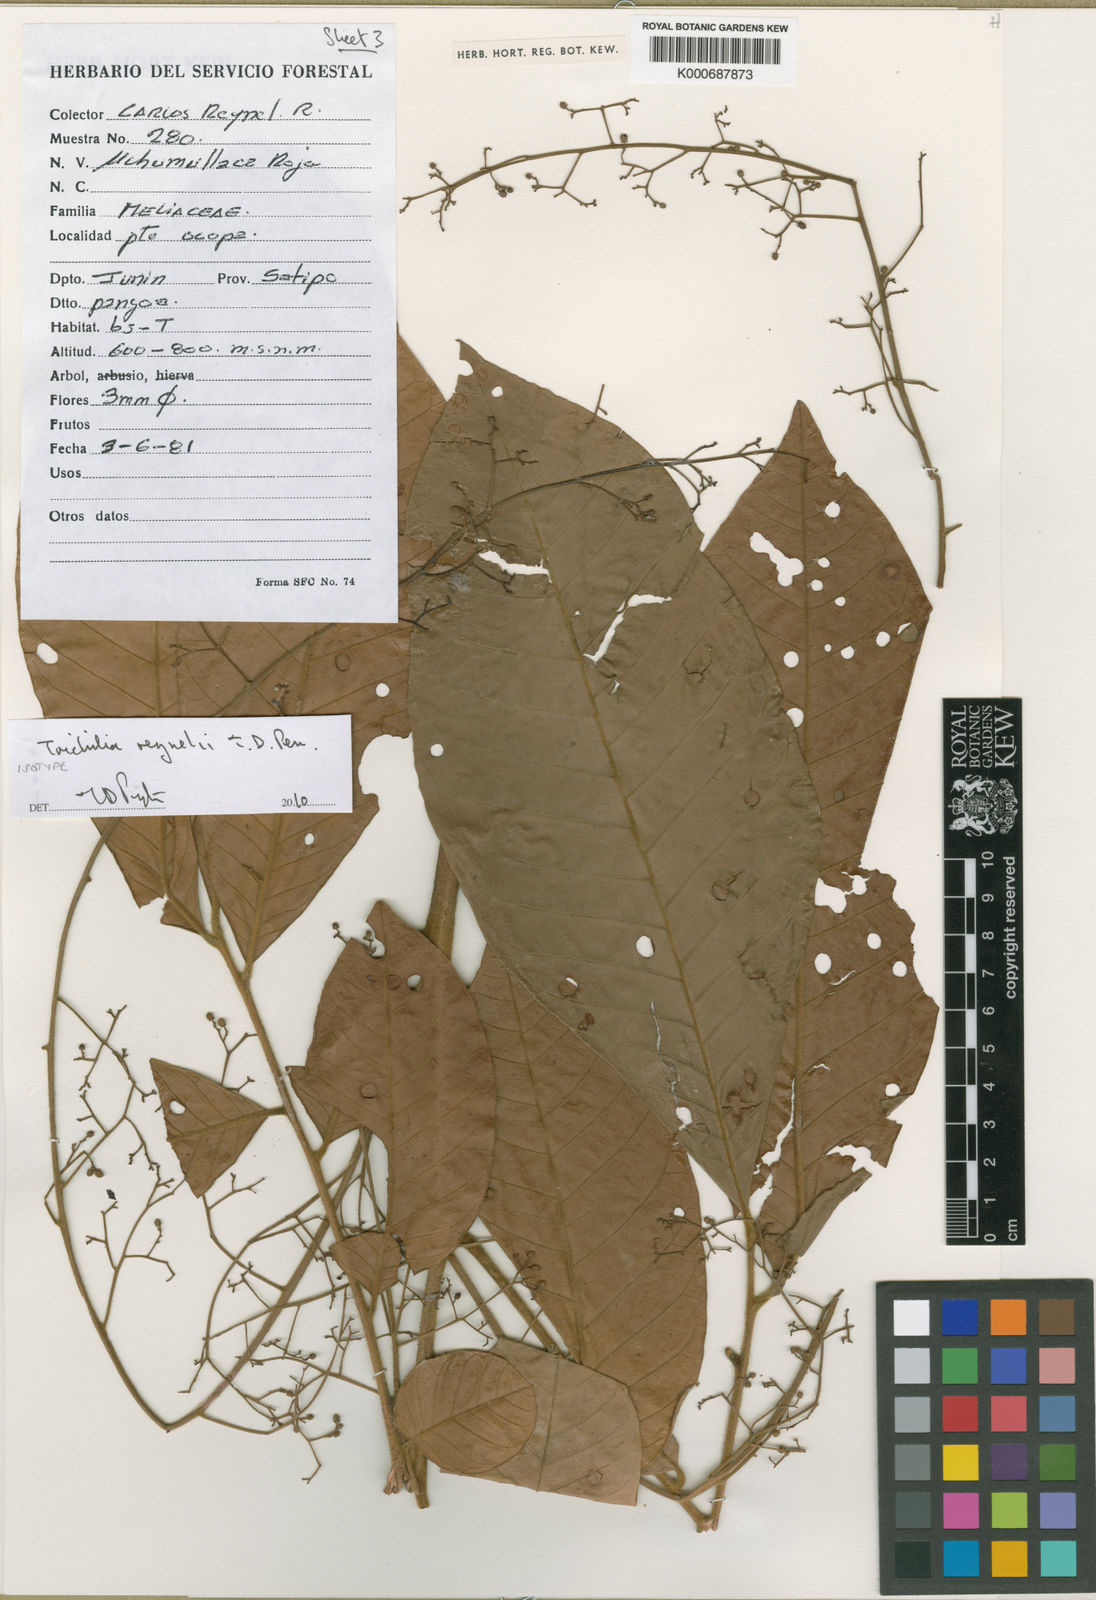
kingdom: Plantae
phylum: Tracheophyta
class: Magnoliopsida
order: Sapindales
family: Meliaceae
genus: Trichilia
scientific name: Trichilia
